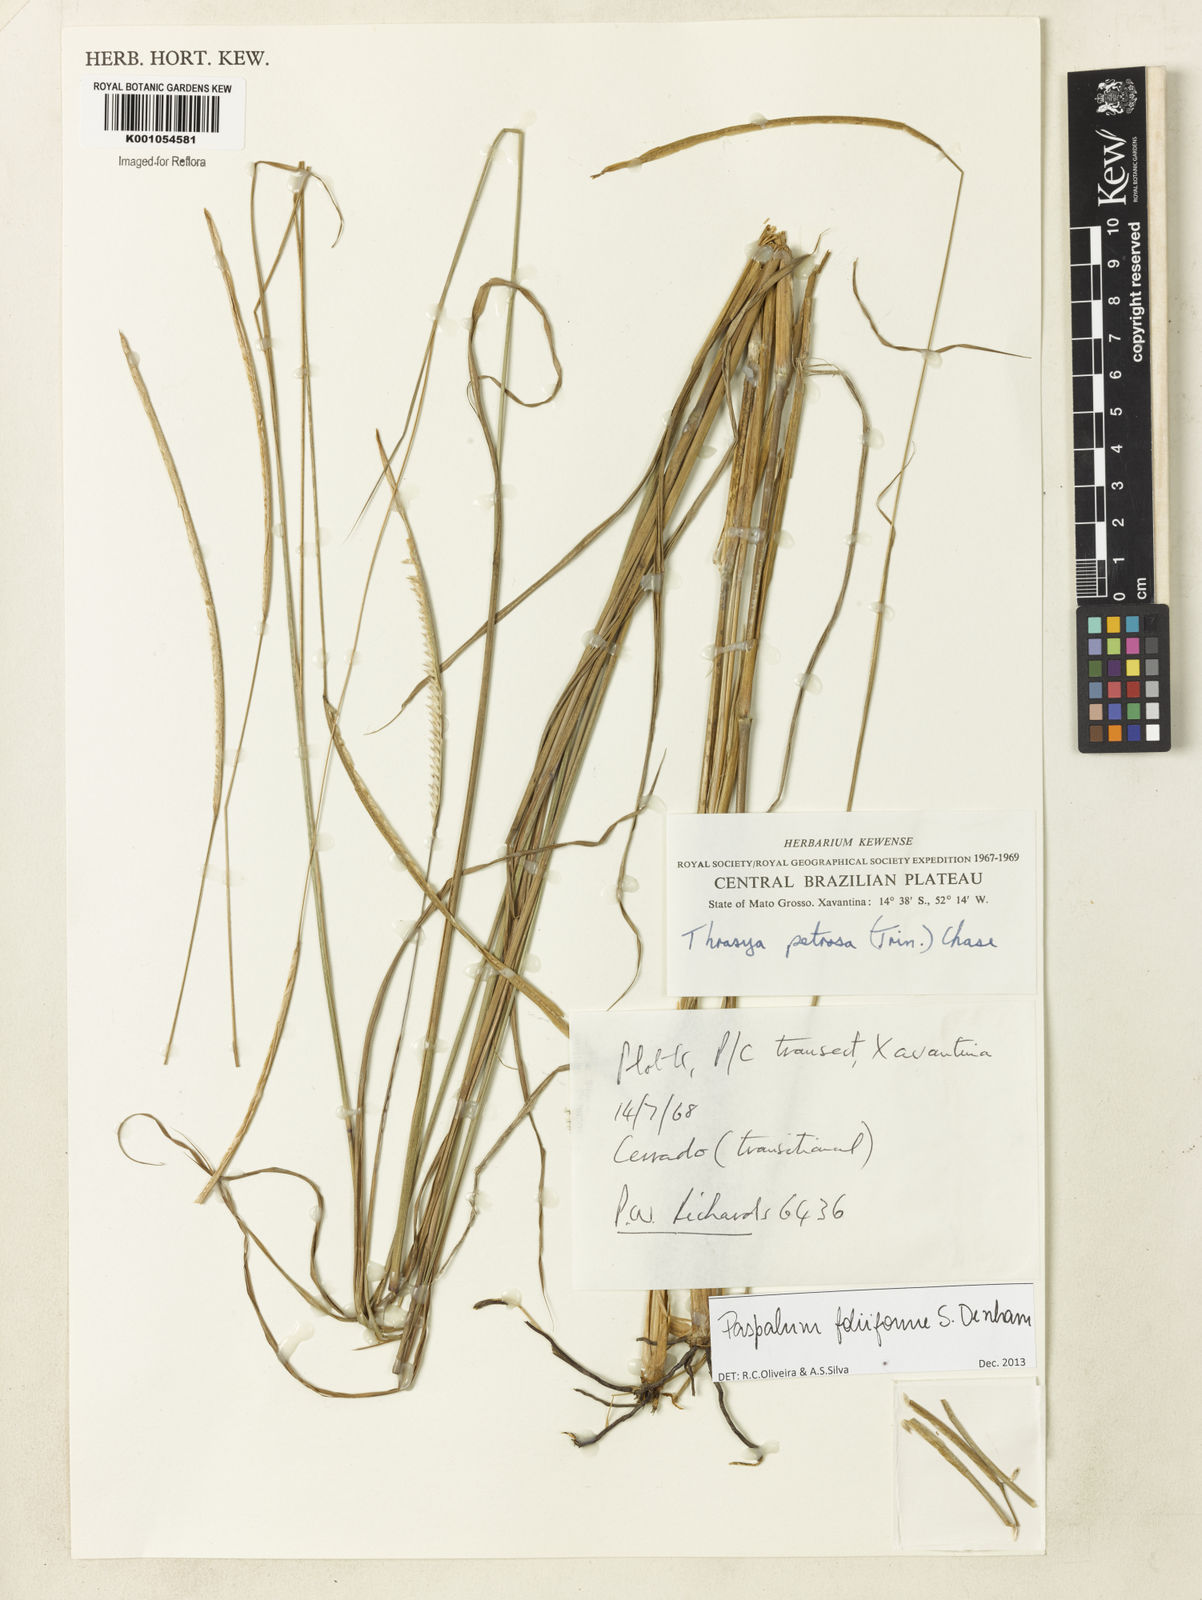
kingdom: Plantae
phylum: Tracheophyta
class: Liliopsida
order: Poales
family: Poaceae
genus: Paspalum
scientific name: Paspalum foliiforme
